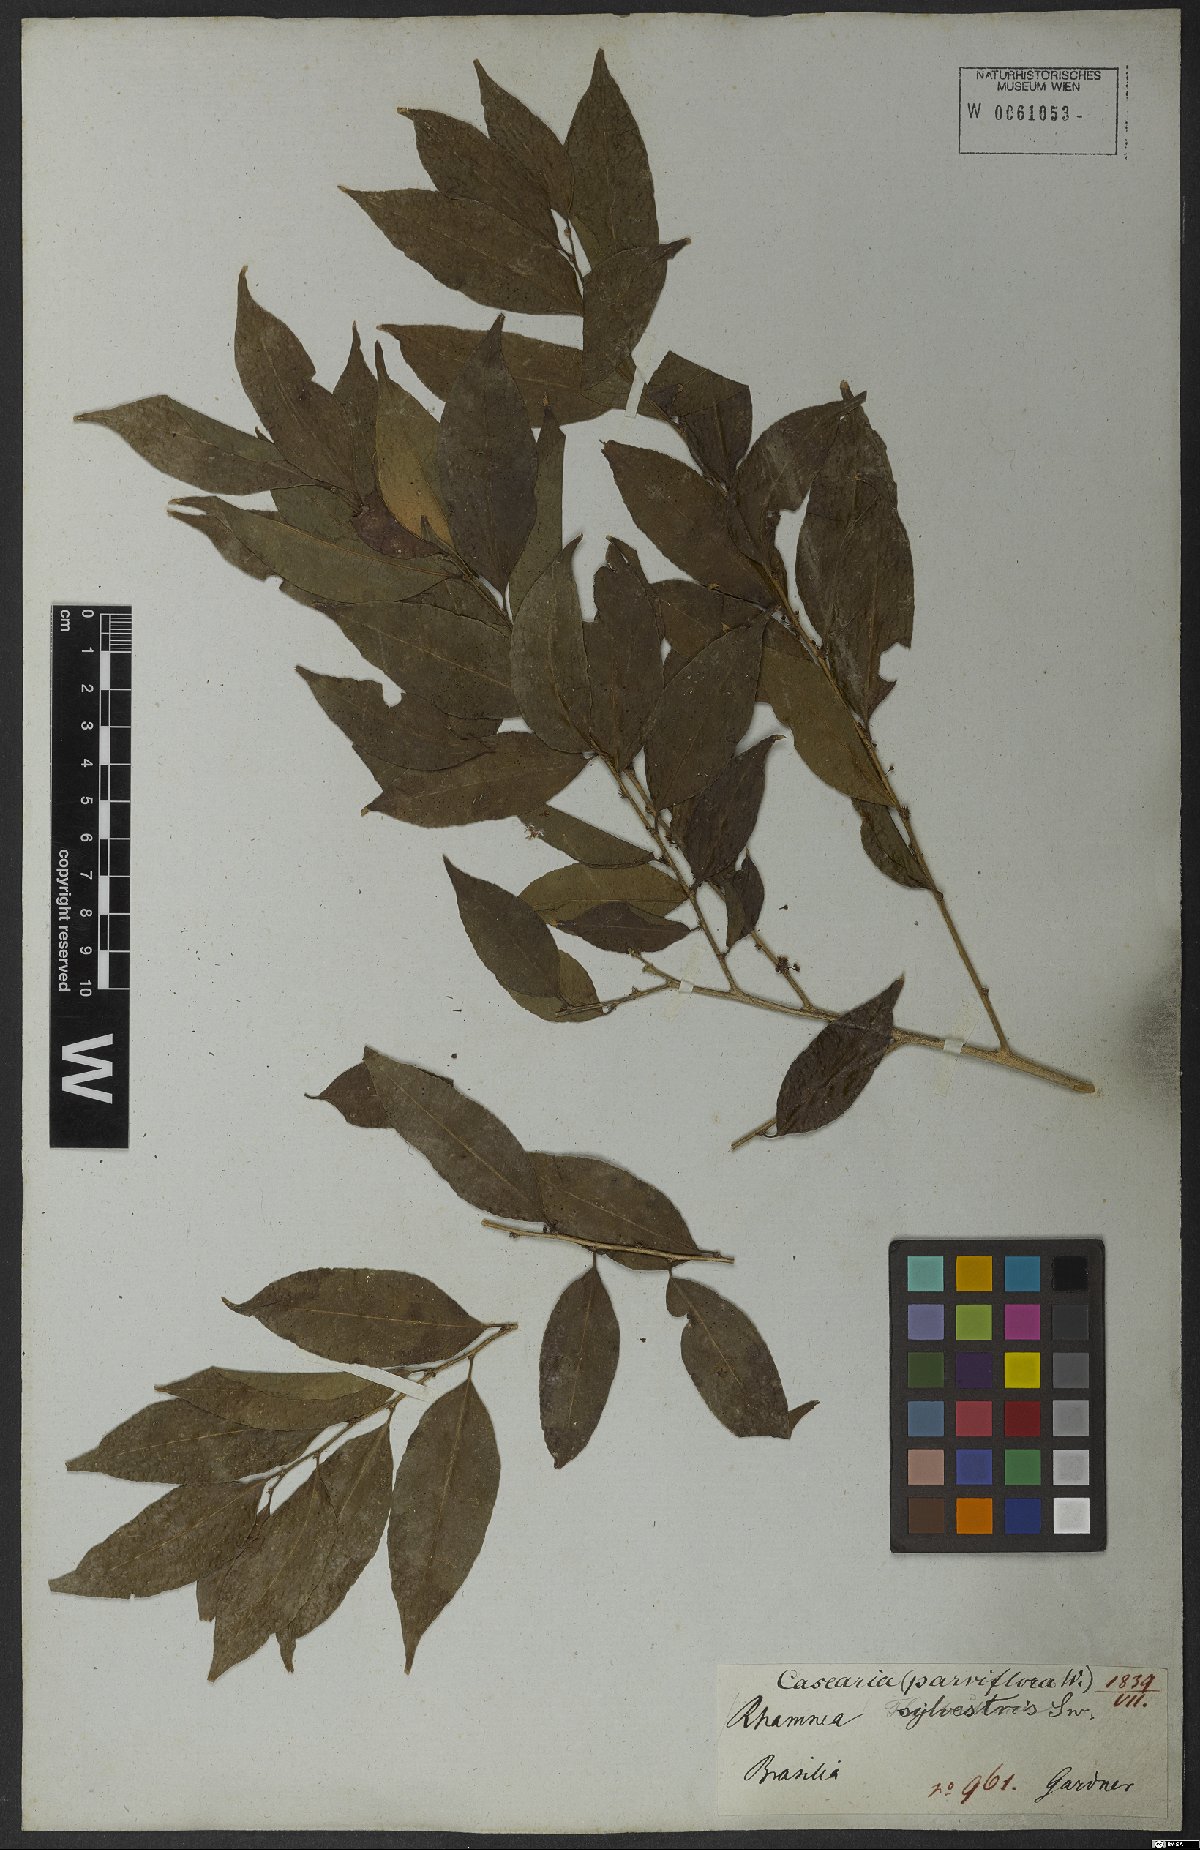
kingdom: Plantae
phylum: Tracheophyta
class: Magnoliopsida
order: Malpighiales
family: Salicaceae
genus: Casearia
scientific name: Casearia sylvestris
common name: Wild sage
